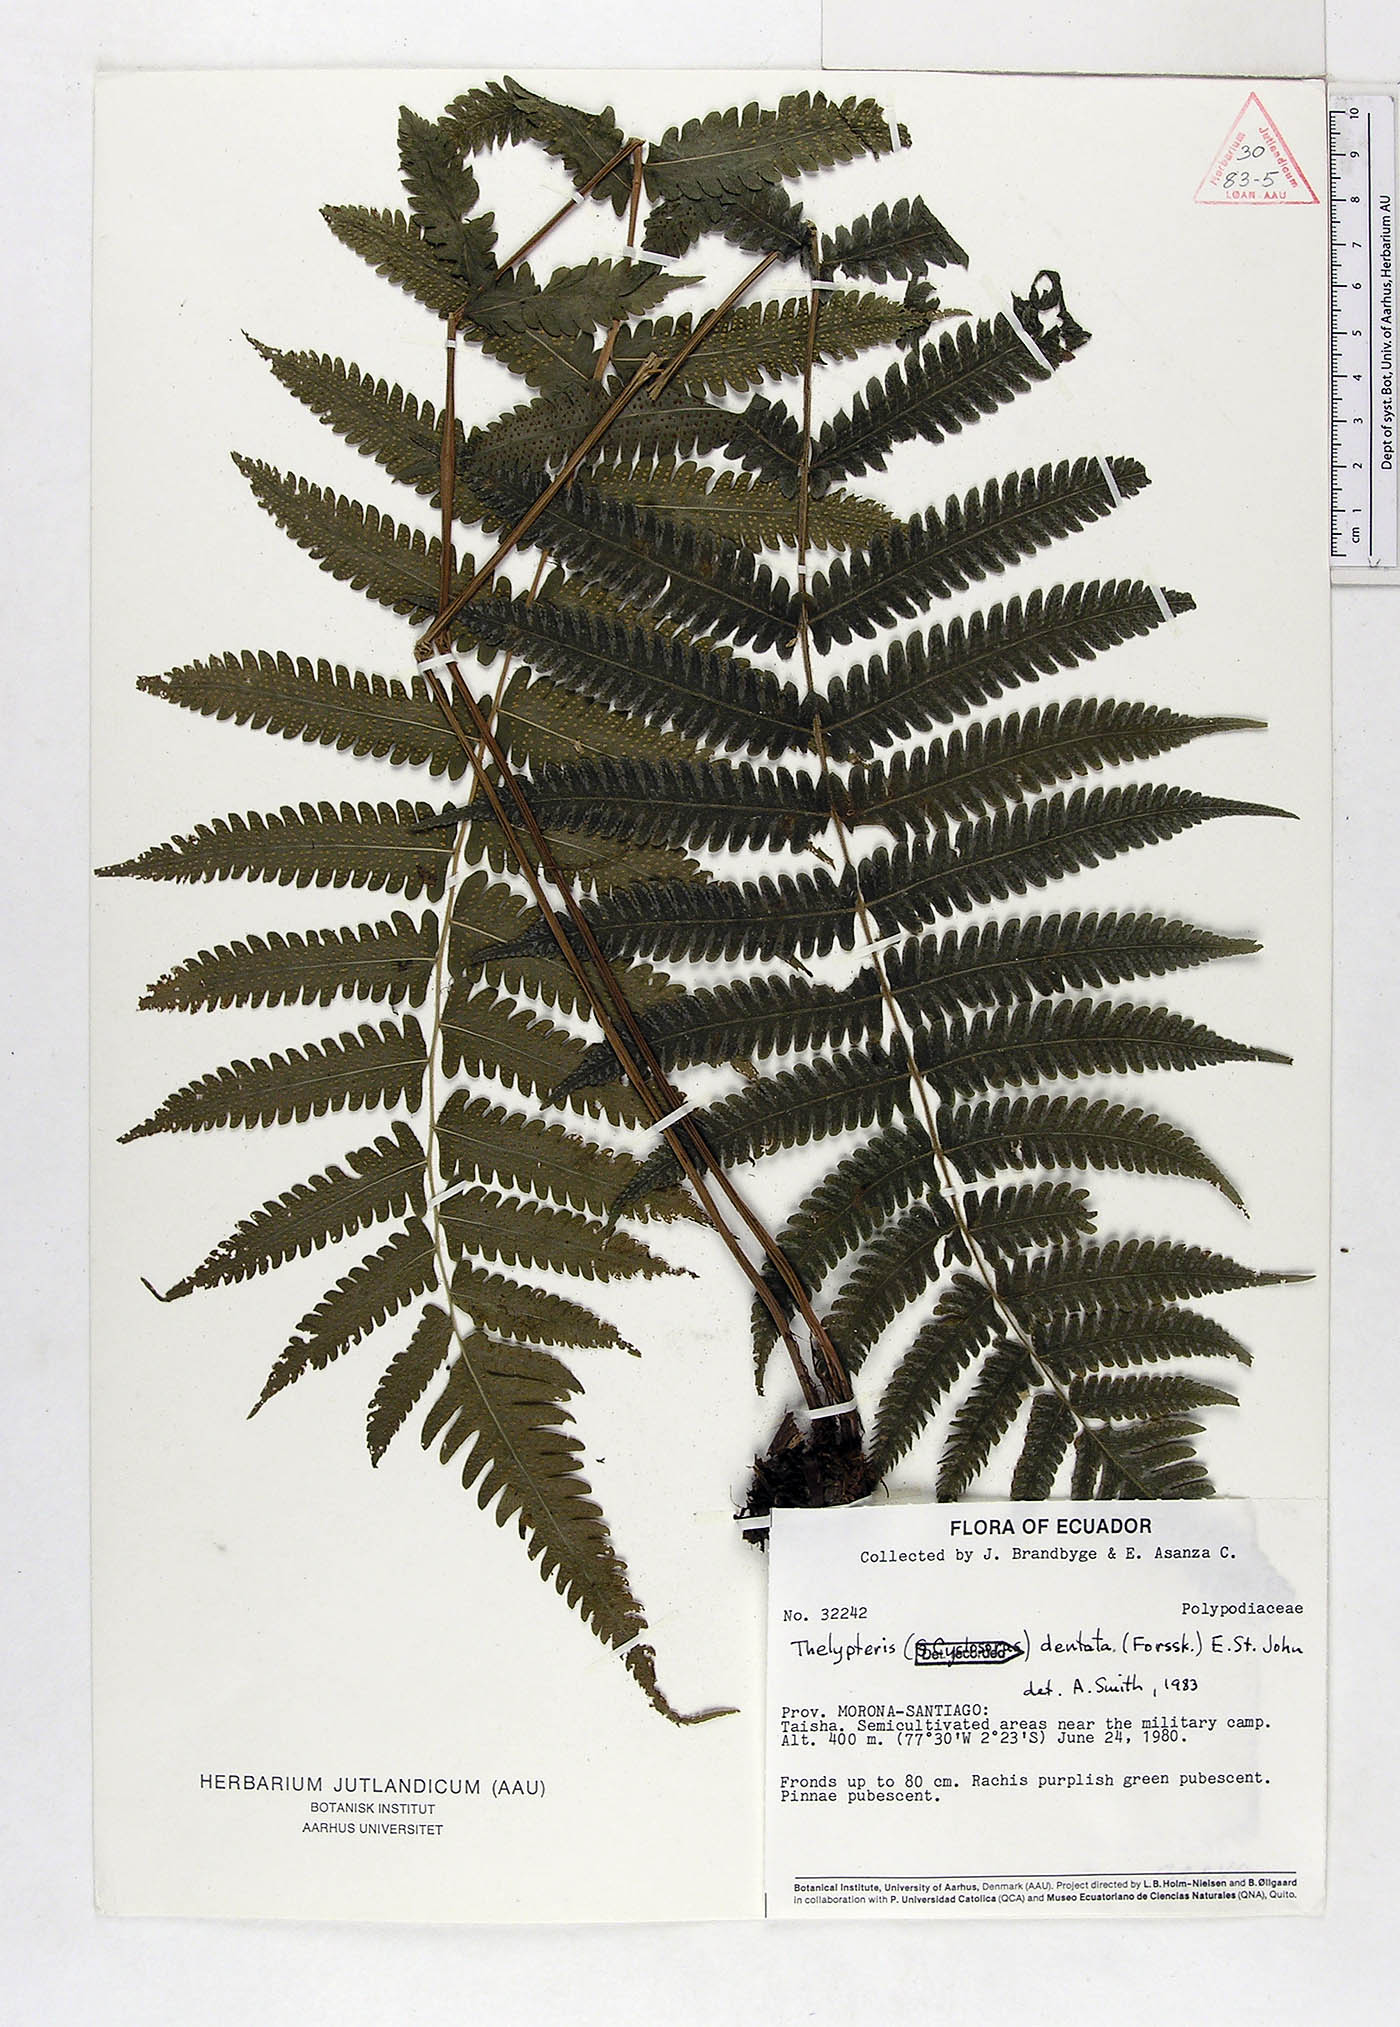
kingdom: Plantae
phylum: Tracheophyta
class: Polypodiopsida
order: Polypodiales
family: Thelypteridaceae
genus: Christella
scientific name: Christella dentata
